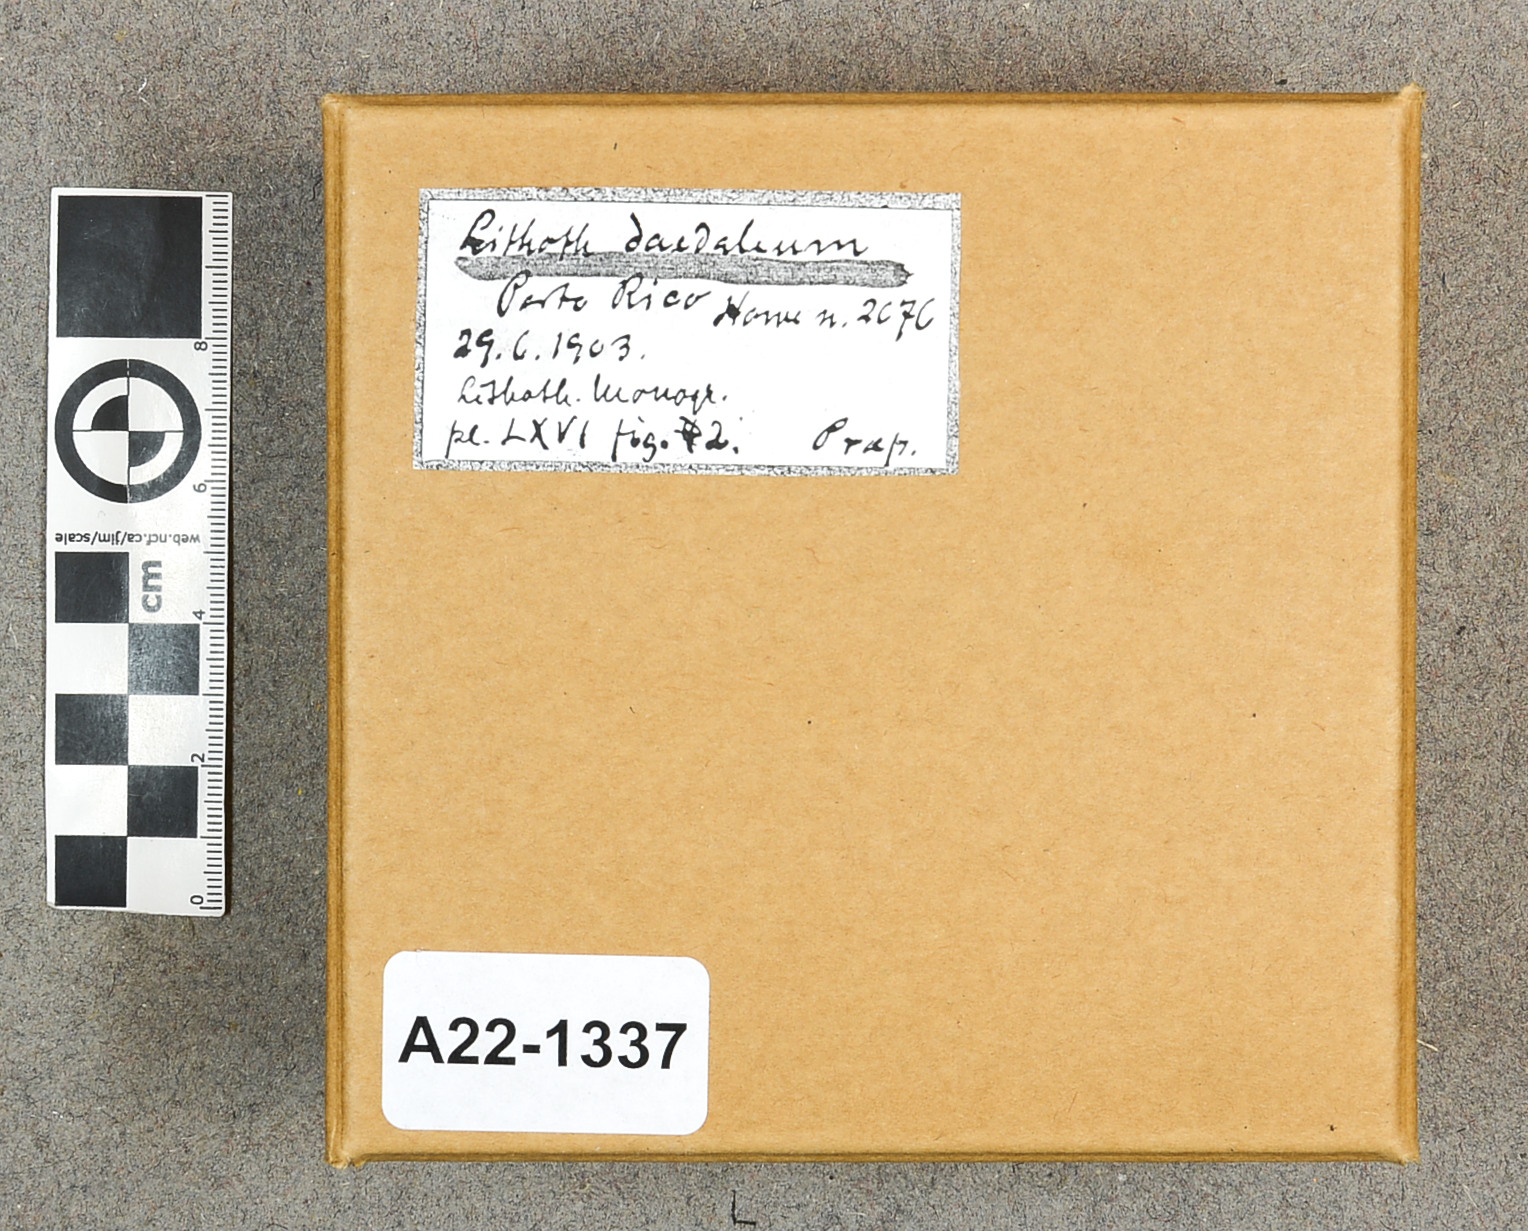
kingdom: Plantae
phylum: Rhodophyta
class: Florideophyceae
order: Corallinales
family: Lithophyllaceae
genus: Lithophyllum
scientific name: Lithophyllum kaiseri
